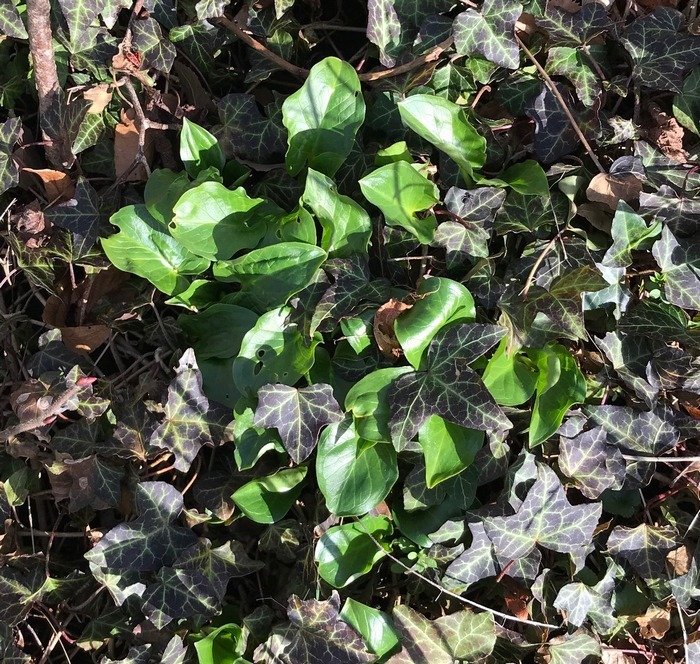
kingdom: Plantae
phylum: Tracheophyta
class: Liliopsida
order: Alismatales
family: Araceae
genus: Arum
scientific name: Arum
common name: Arumslægten
